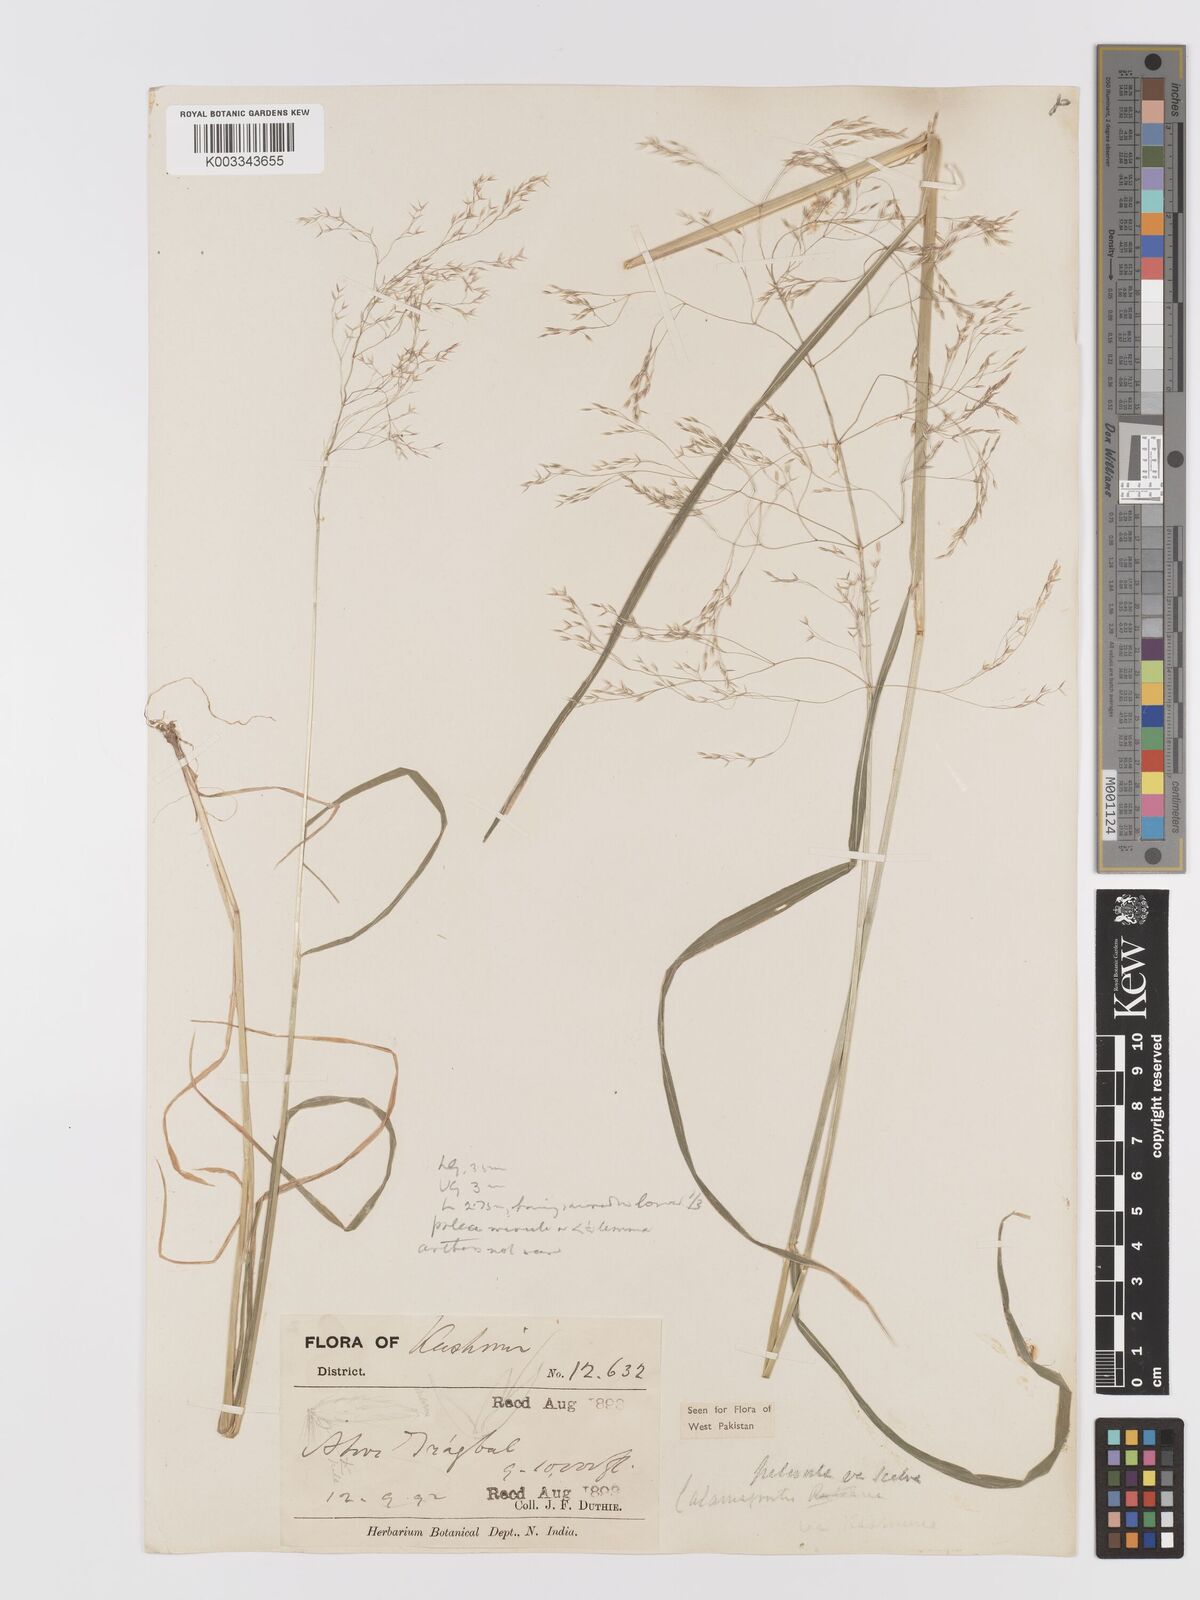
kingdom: Plantae
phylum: Tracheophyta
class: Liliopsida
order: Poales
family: Poaceae
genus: Agrostis
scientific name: Agrostis pilosula
